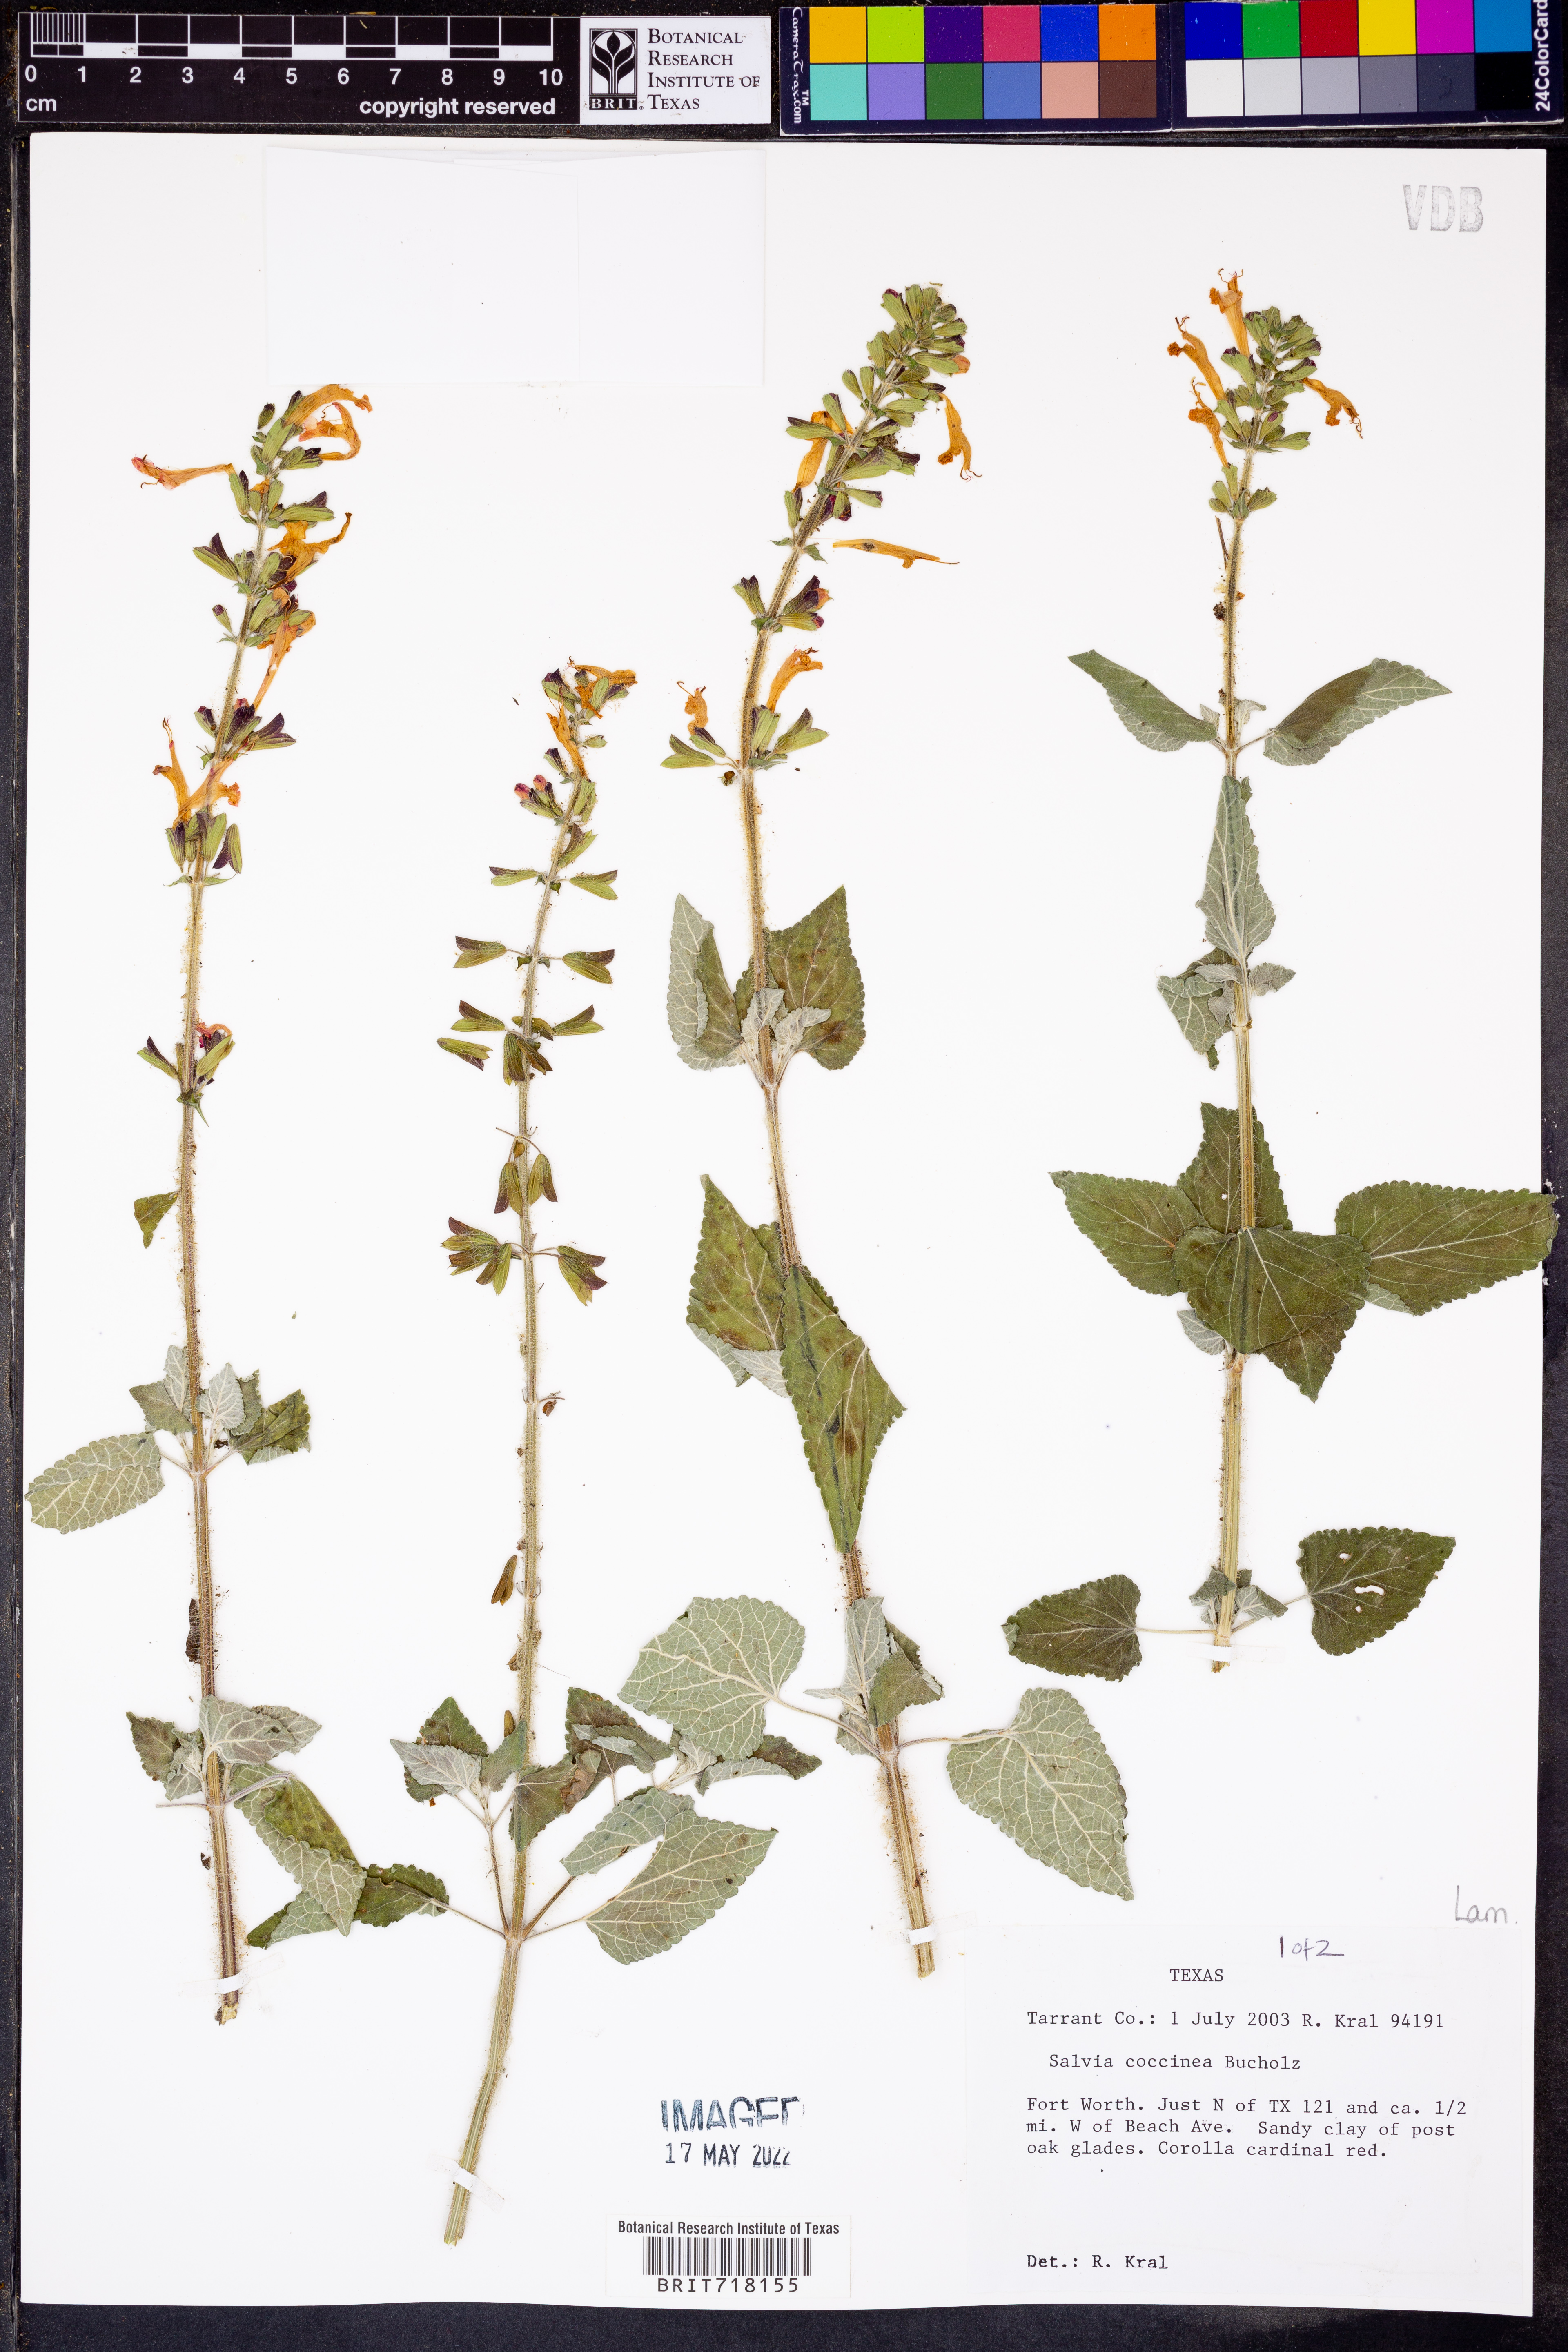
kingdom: Plantae
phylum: Tracheophyta
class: Magnoliopsida
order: Lamiales
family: Lamiaceae
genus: Salvia
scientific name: Salvia coccinea
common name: Blood sage
